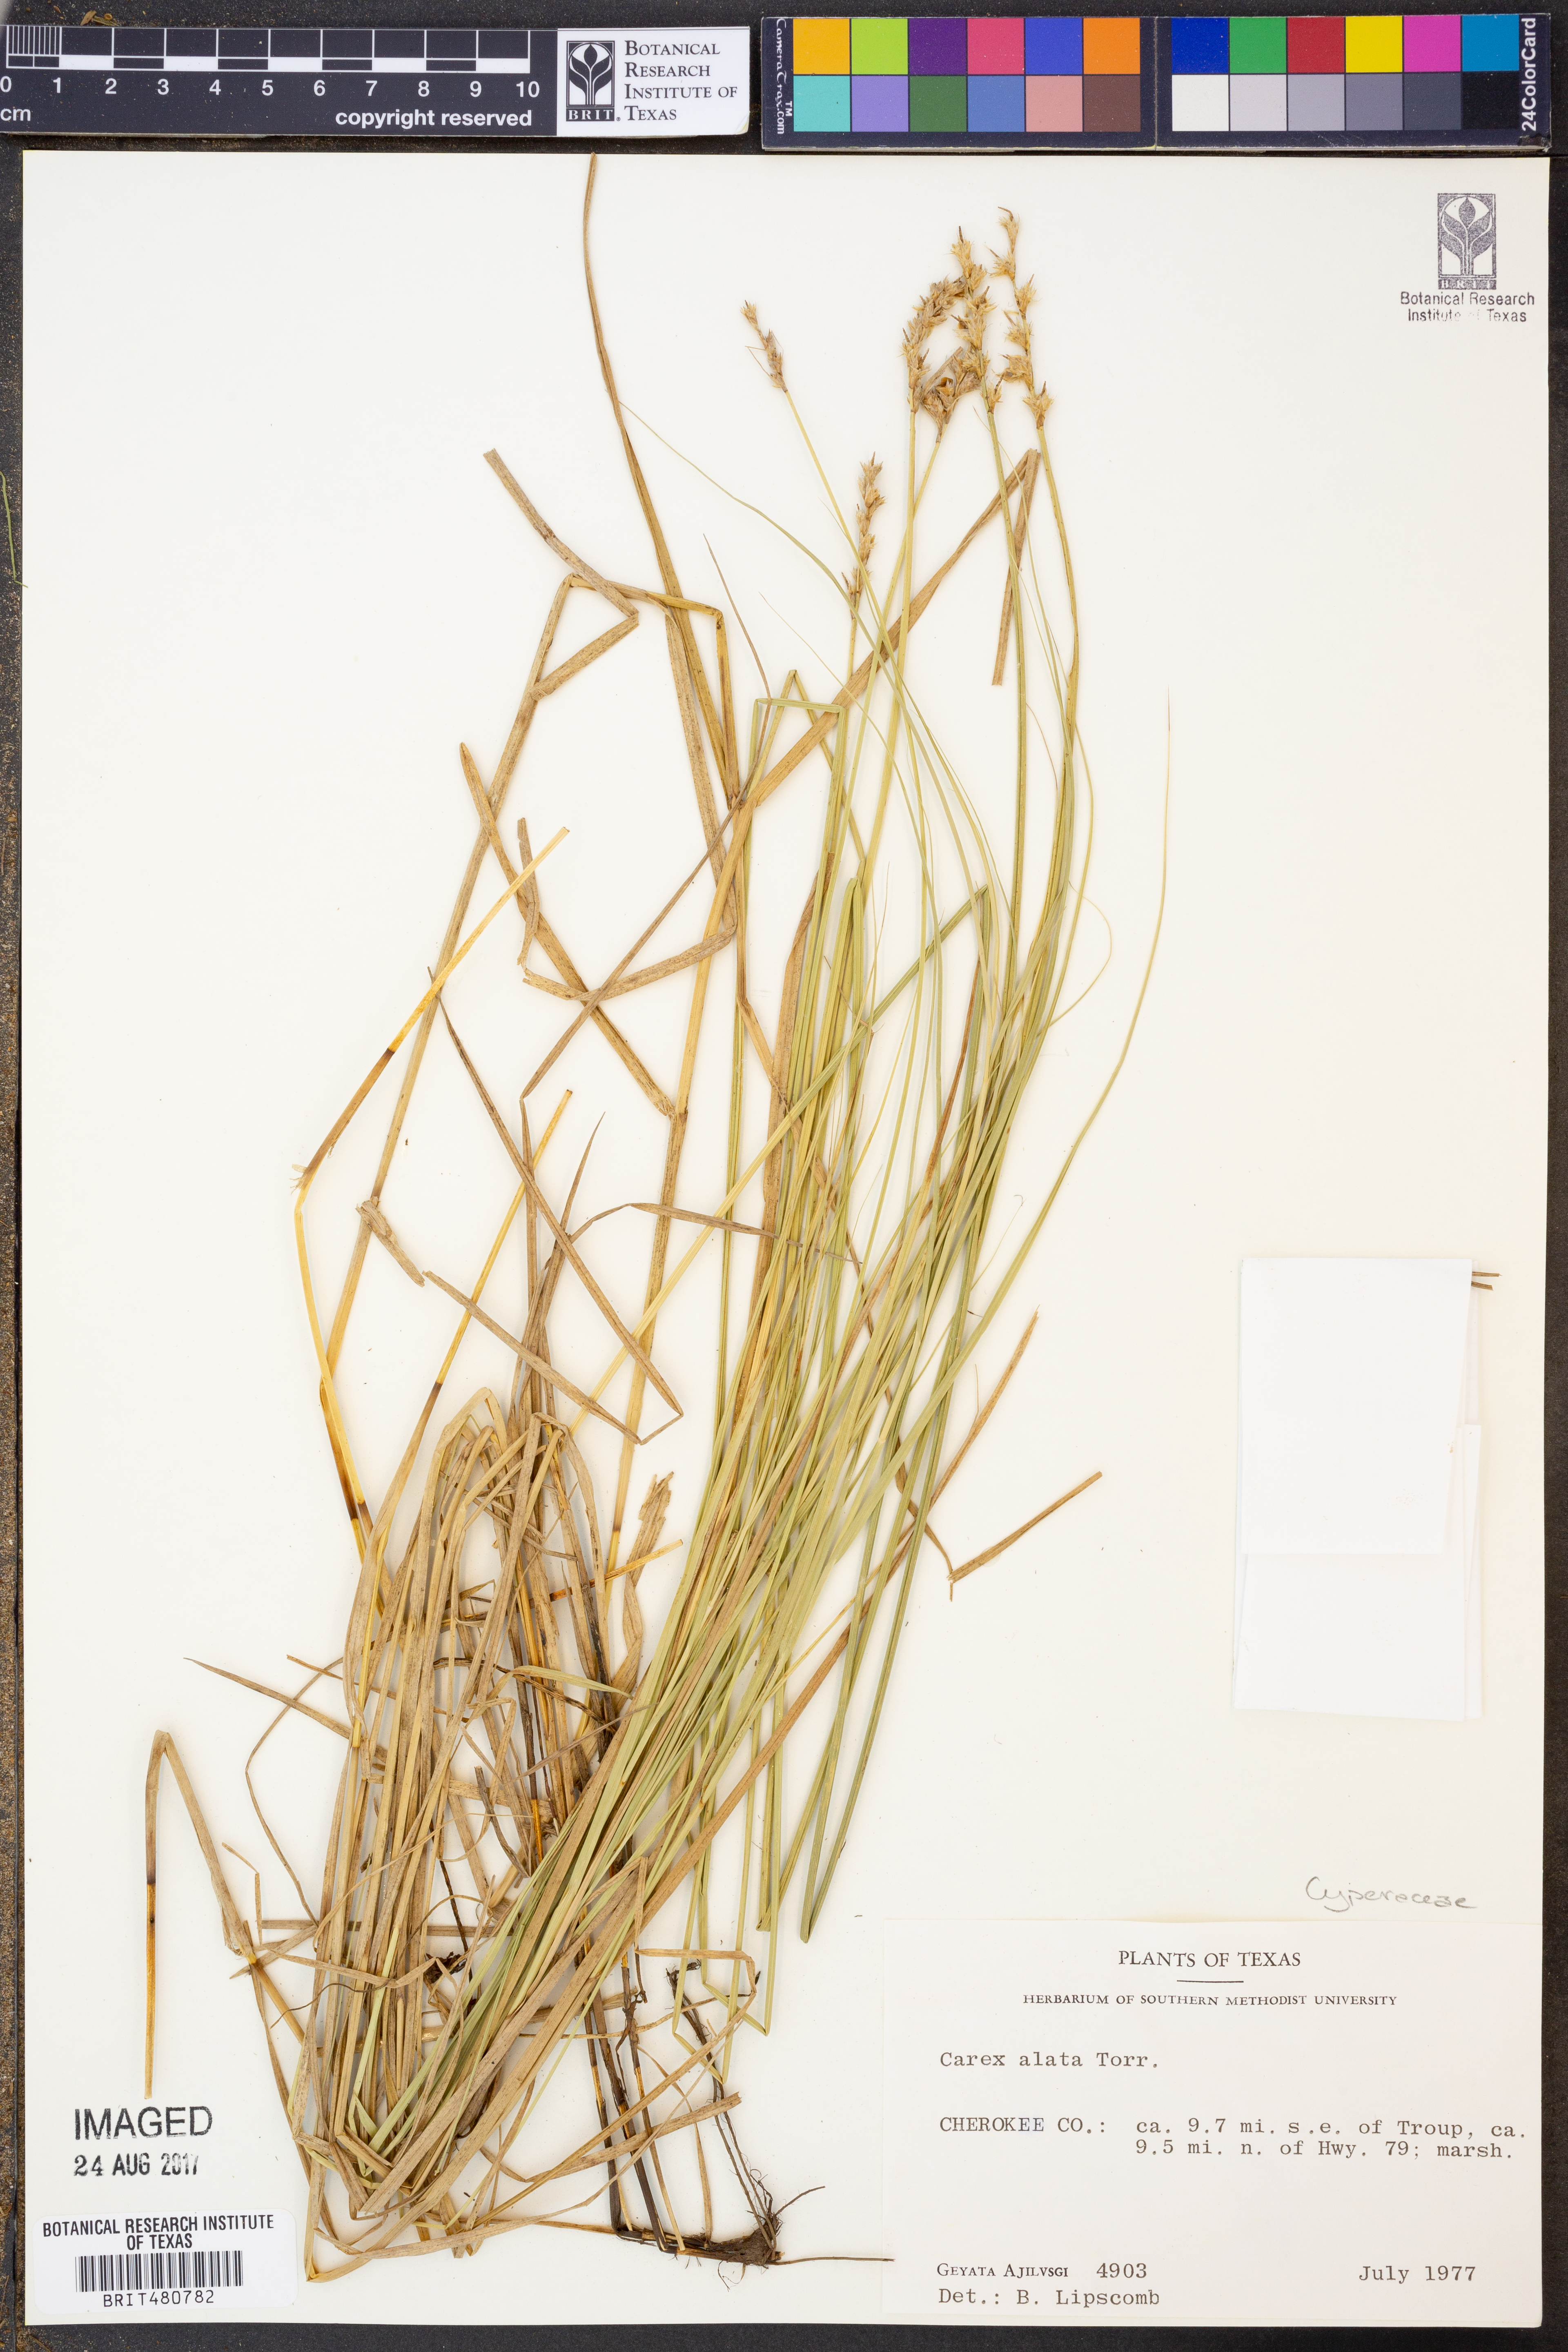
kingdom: Plantae
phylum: Tracheophyta
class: Liliopsida
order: Poales
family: Cyperaceae
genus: Carex
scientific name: Carex alata
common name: Broad-winged sedge
